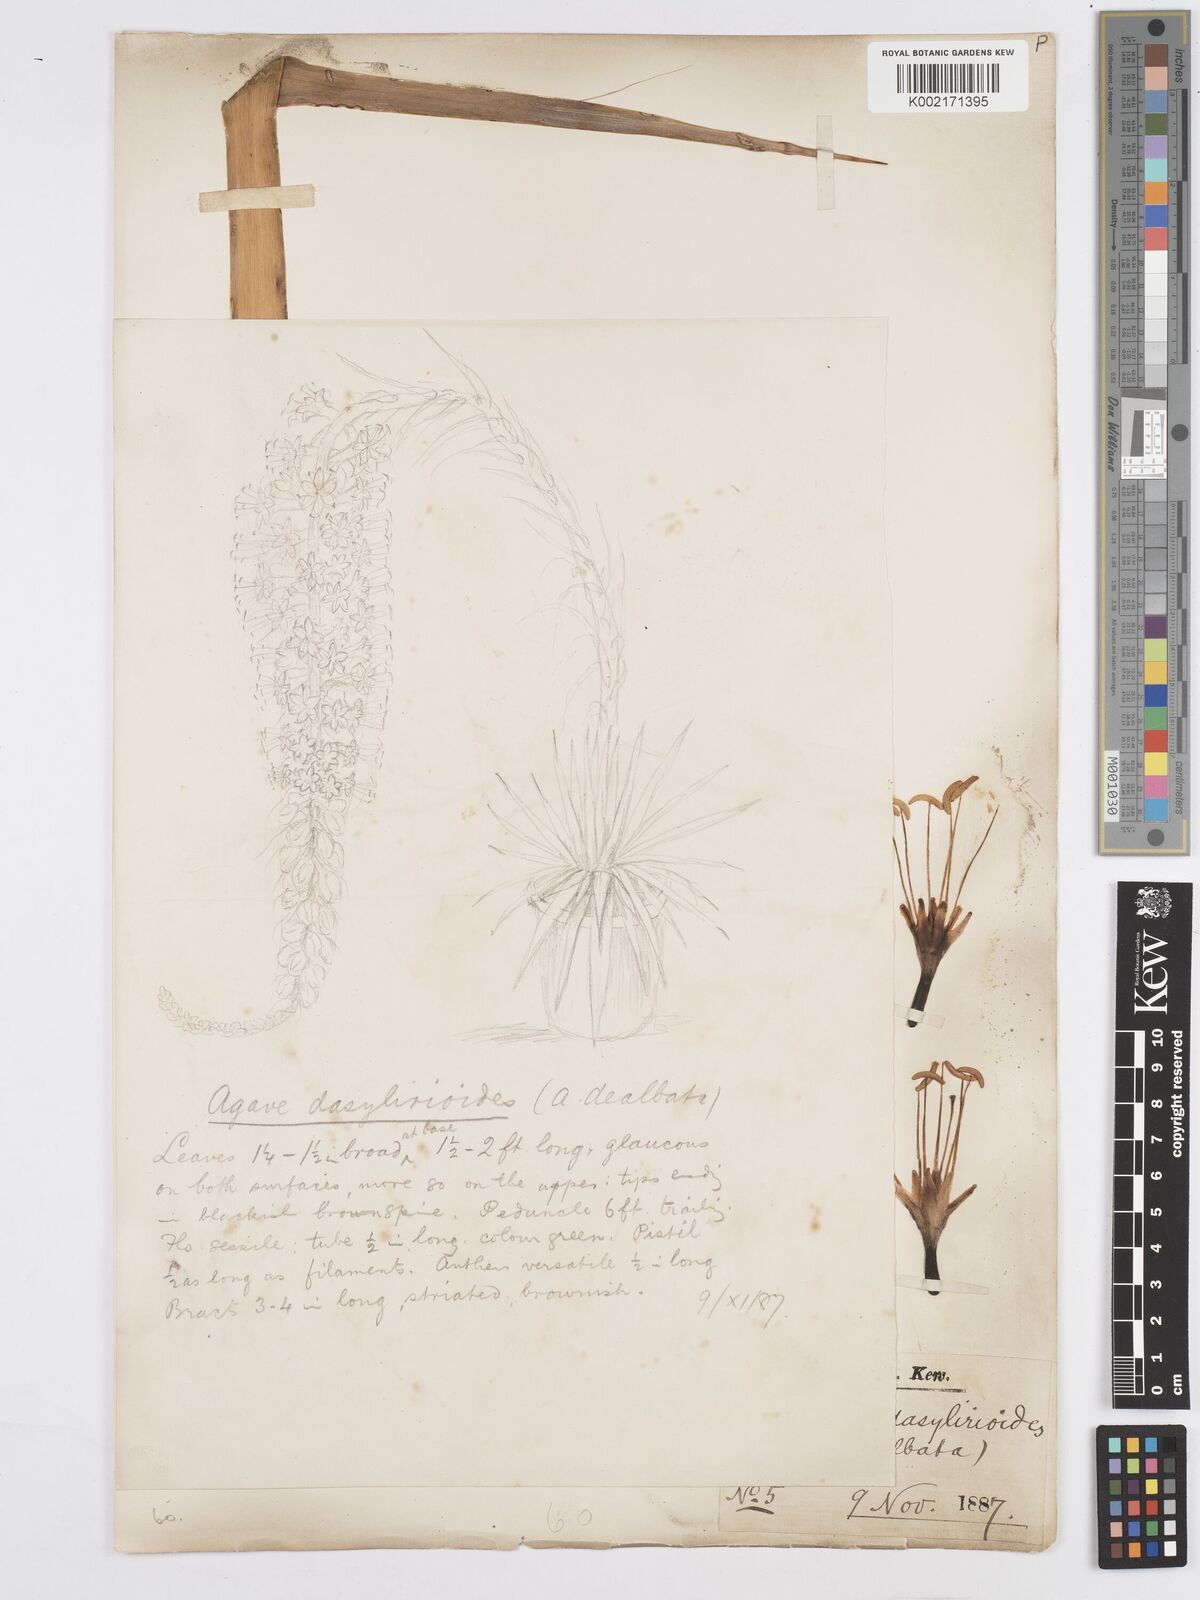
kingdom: Plantae
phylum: Tracheophyta
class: Liliopsida
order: Asparagales
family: Asparagaceae
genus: Agave
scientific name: Agave dealbata
